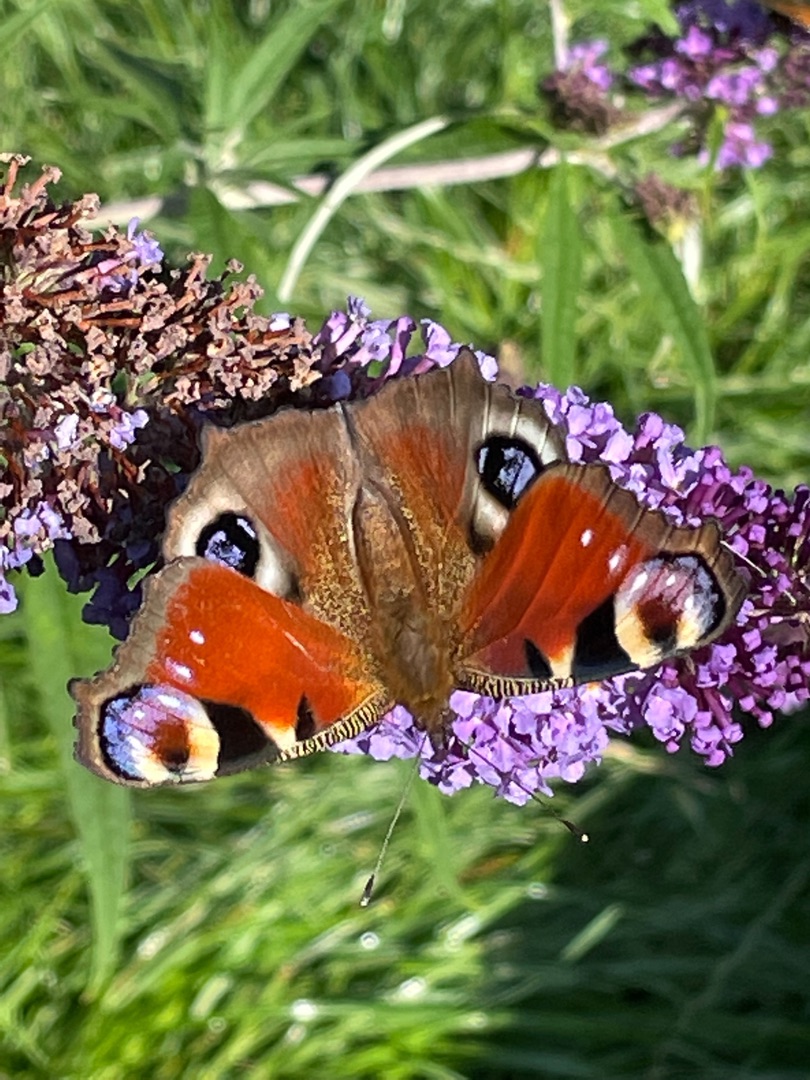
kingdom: Animalia
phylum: Arthropoda
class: Insecta
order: Lepidoptera
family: Nymphalidae
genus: Aglais
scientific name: Aglais io
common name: Dagpåfugleøje
